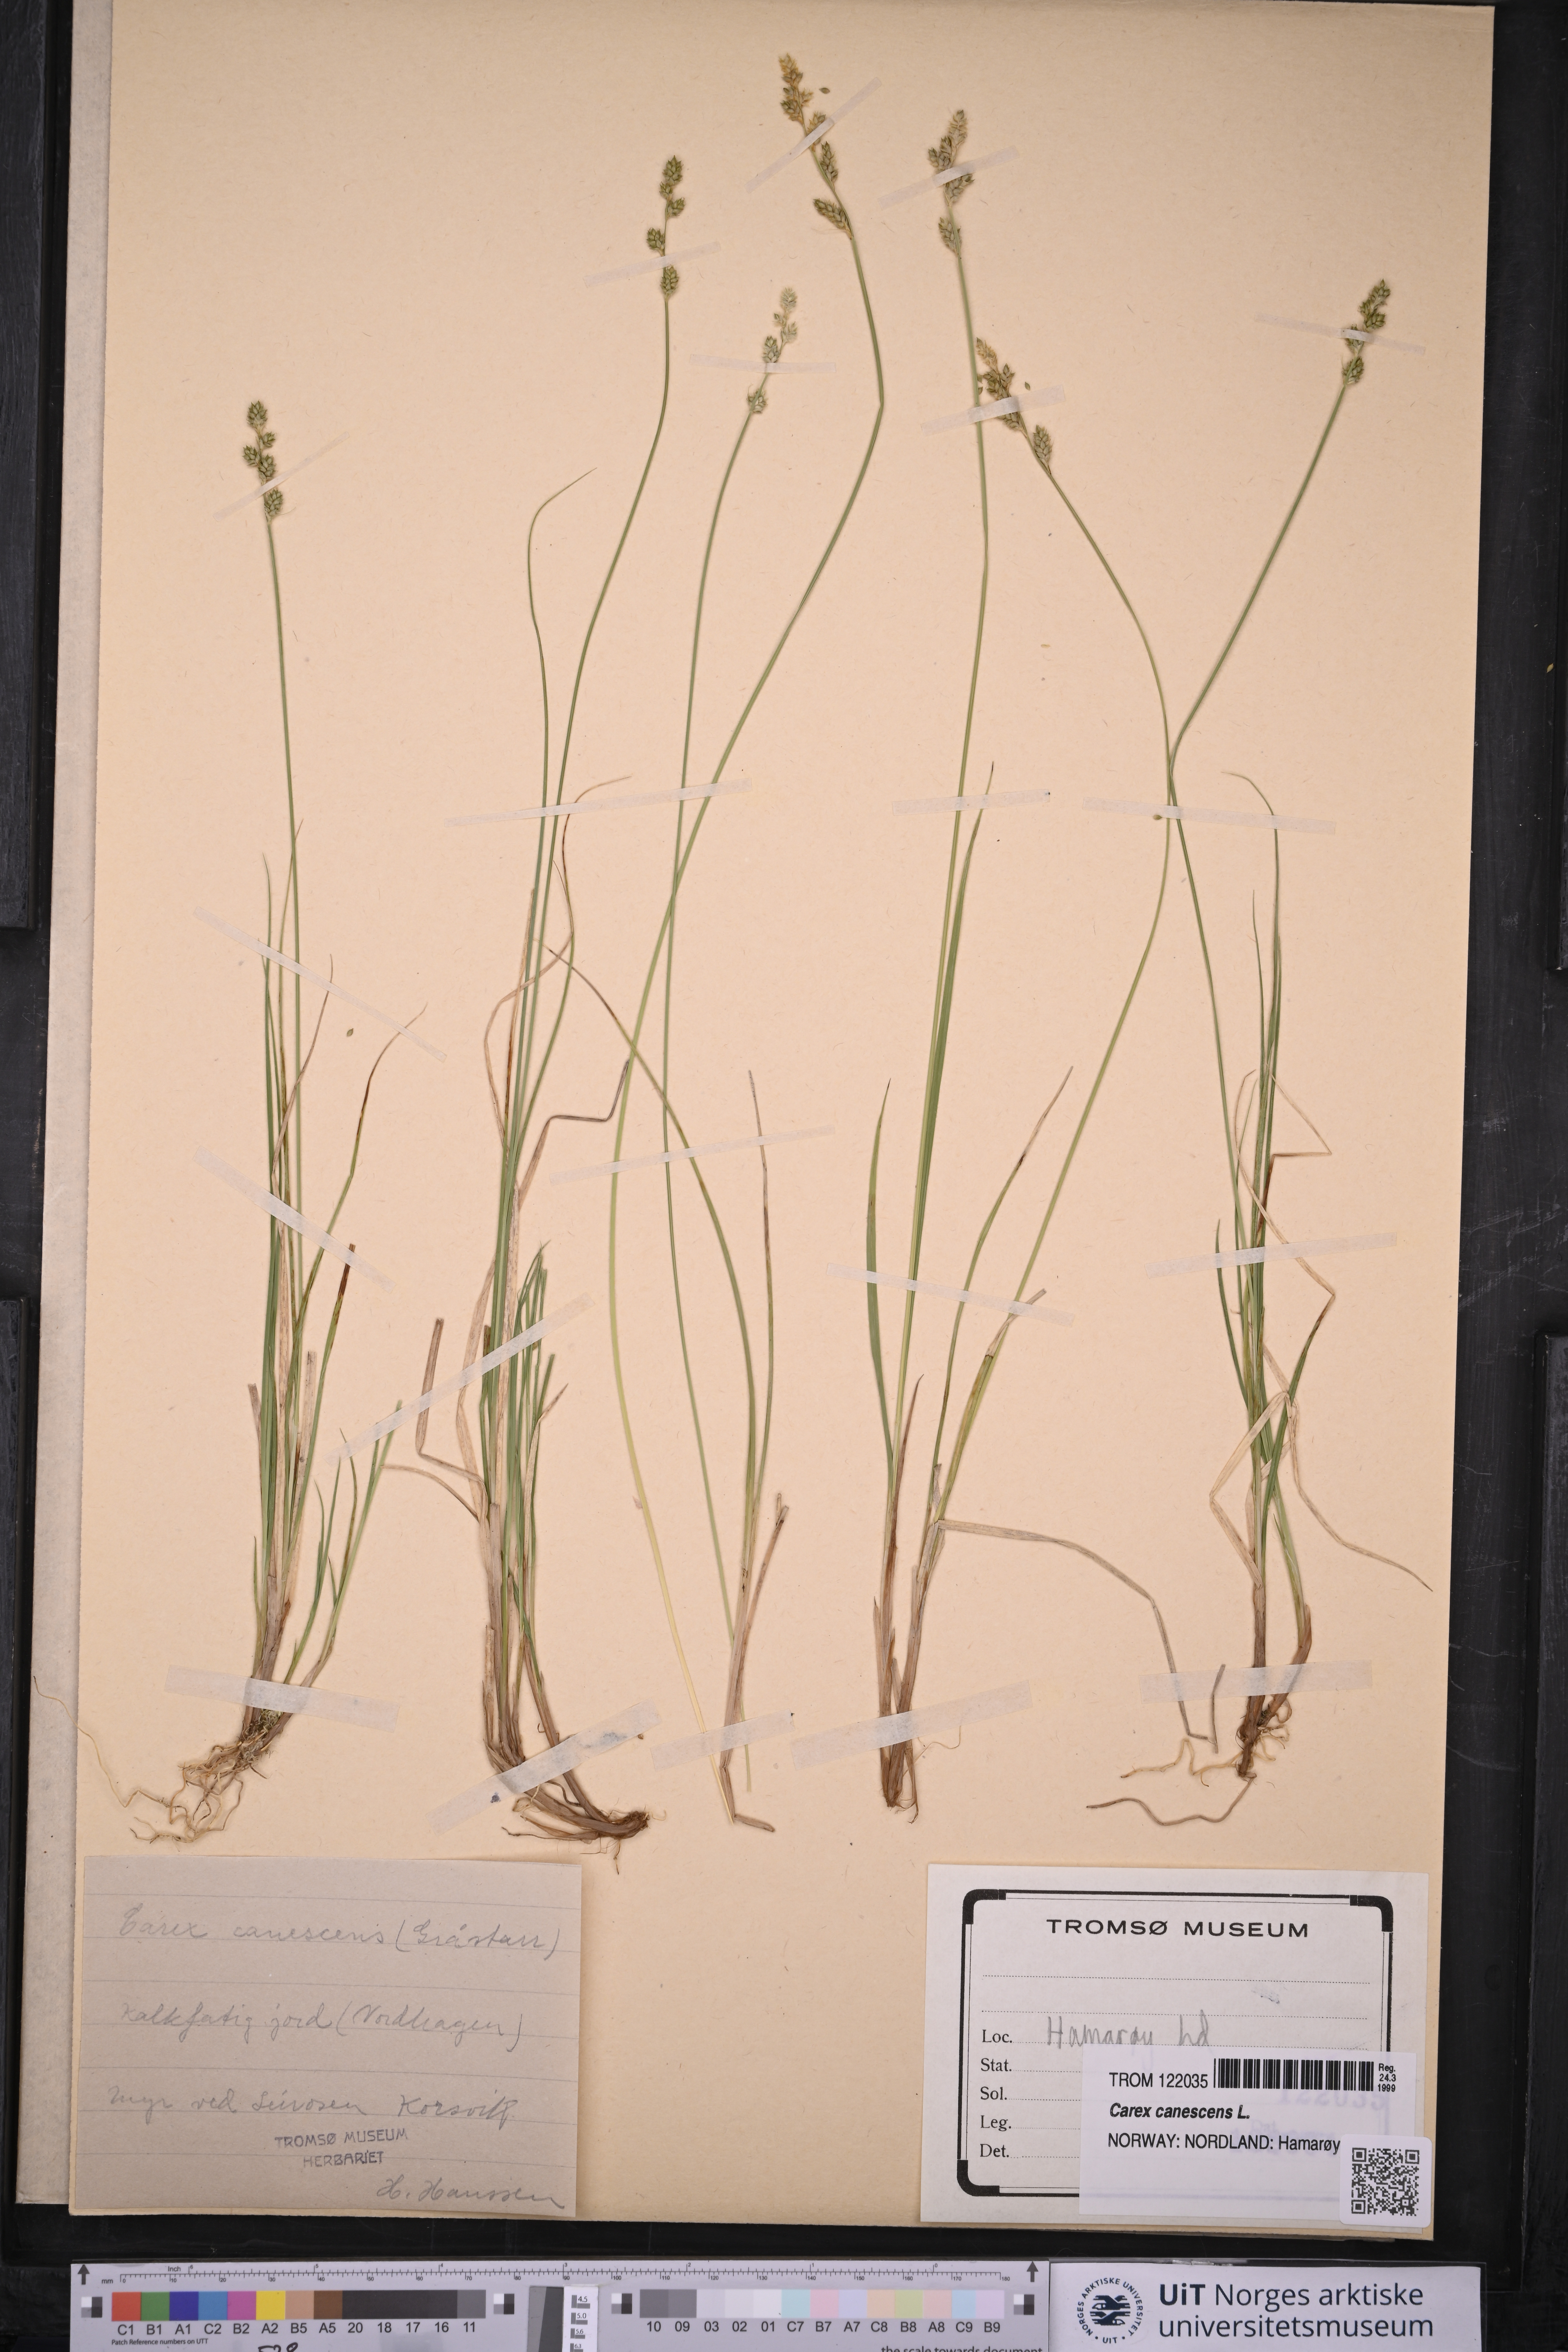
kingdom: Plantae
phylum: Tracheophyta
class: Liliopsida
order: Poales
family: Cyperaceae
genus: Carex
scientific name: Carex canescens
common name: White sedge
